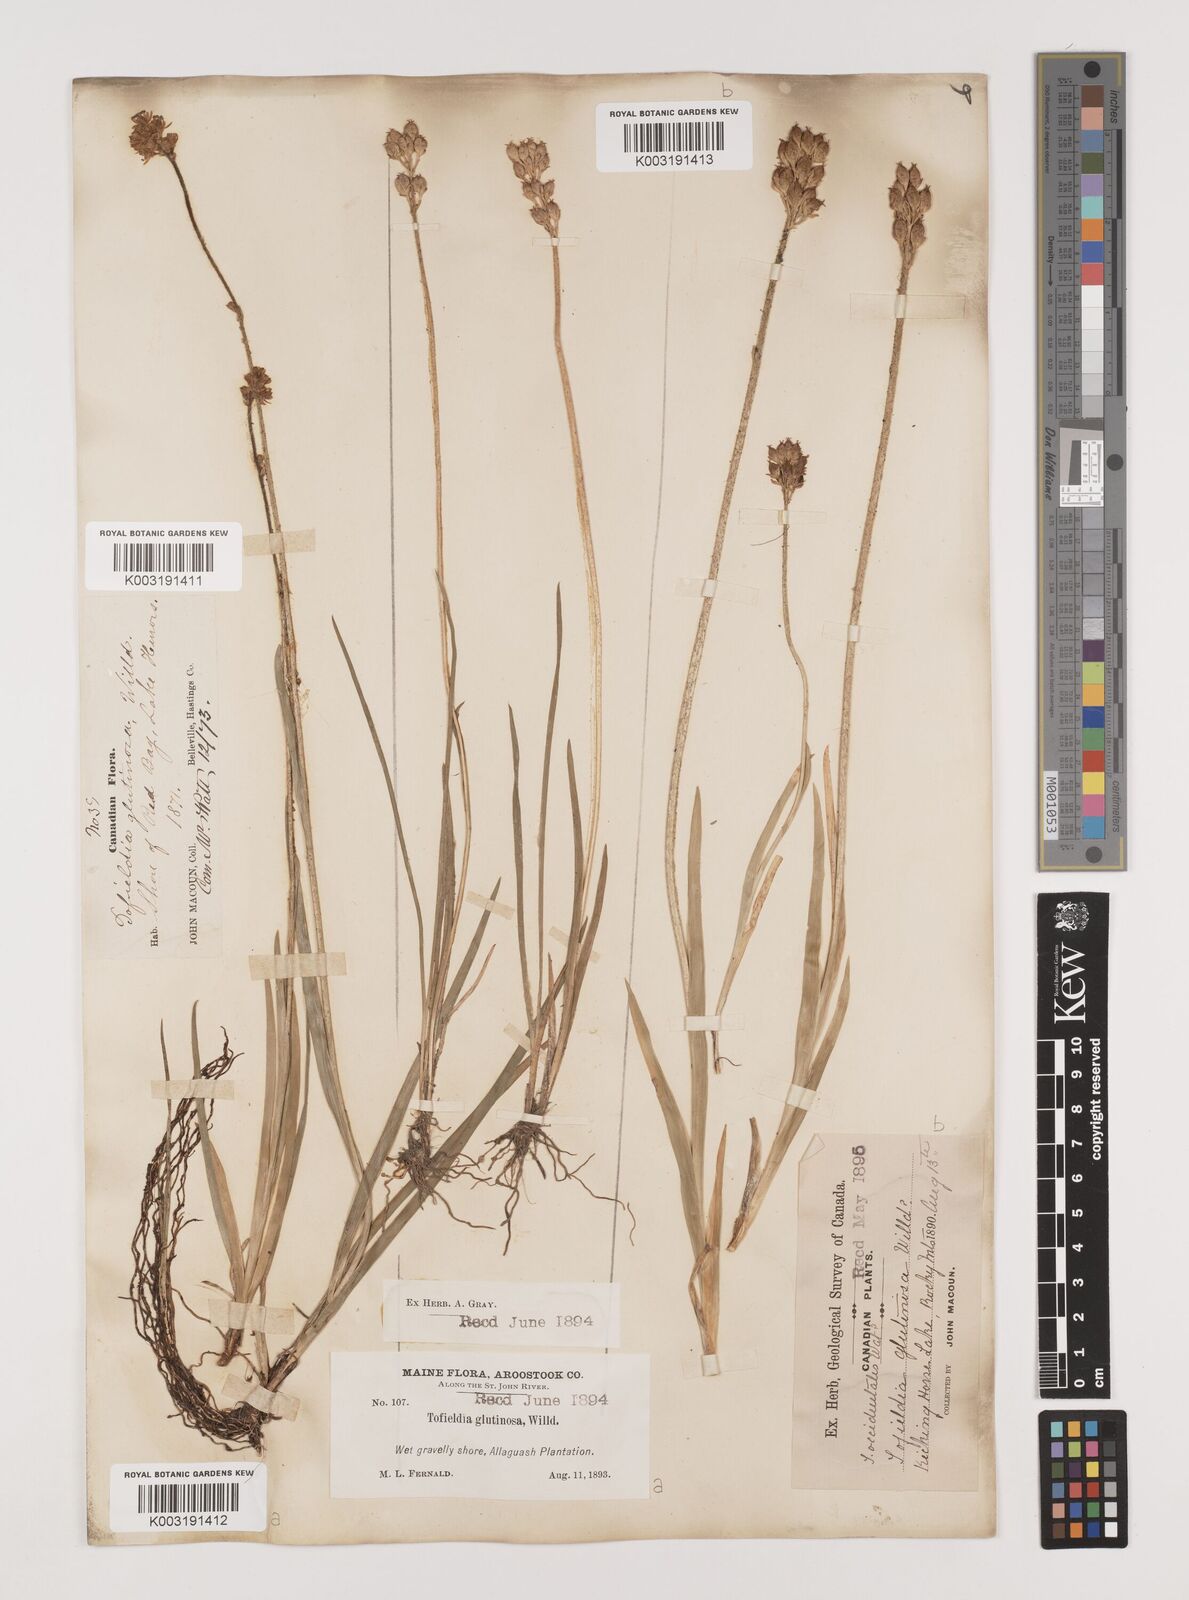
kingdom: Plantae
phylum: Tracheophyta
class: Liliopsida
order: Alismatales
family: Tofieldiaceae
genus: Triantha
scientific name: Triantha glutinosa
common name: Glutinous tofieldia
